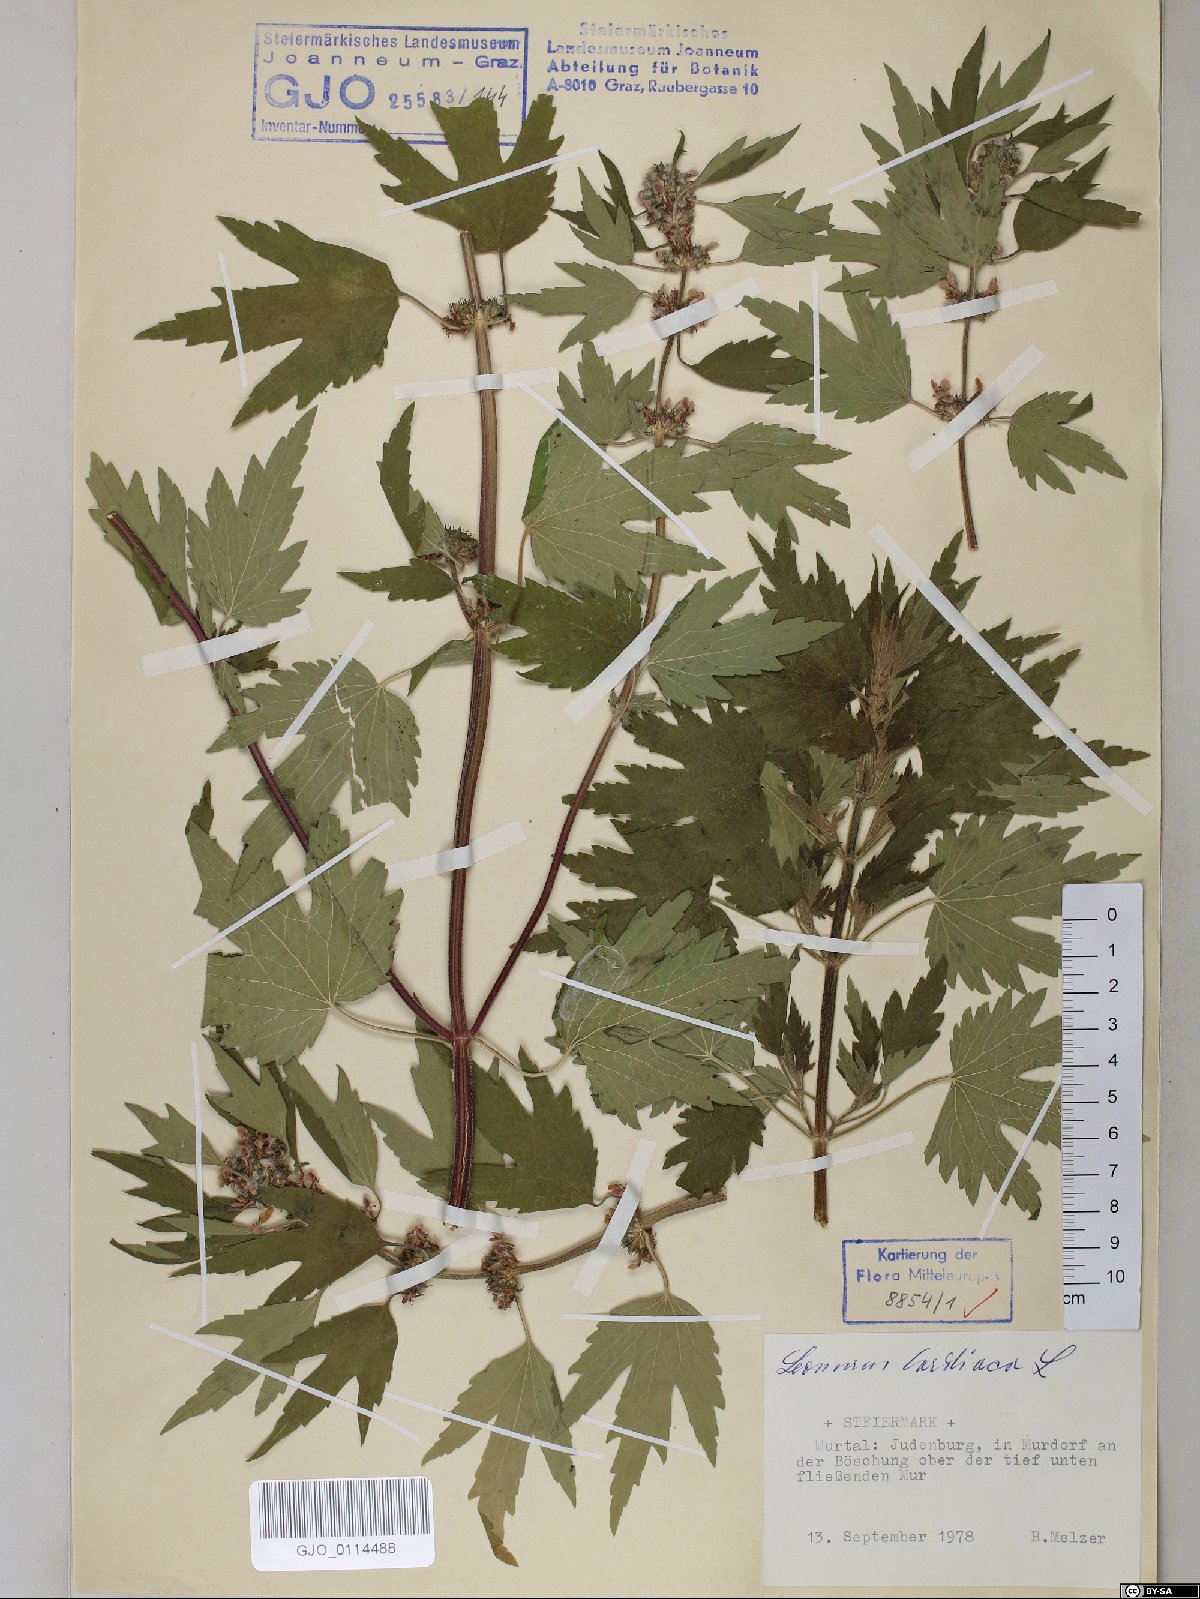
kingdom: Plantae
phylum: Tracheophyta
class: Magnoliopsida
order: Lamiales
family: Lamiaceae
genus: Leonurus
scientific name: Leonurus cardiaca
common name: Motherwort
